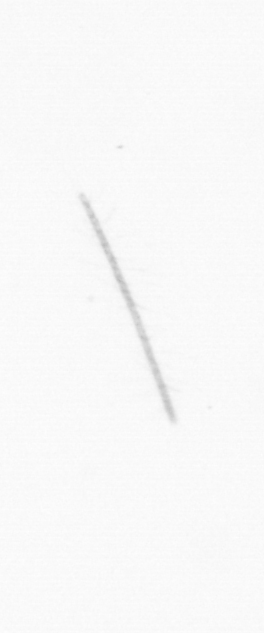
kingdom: Chromista
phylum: Ochrophyta
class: Bacillariophyceae
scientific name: Bacillariophyceae
